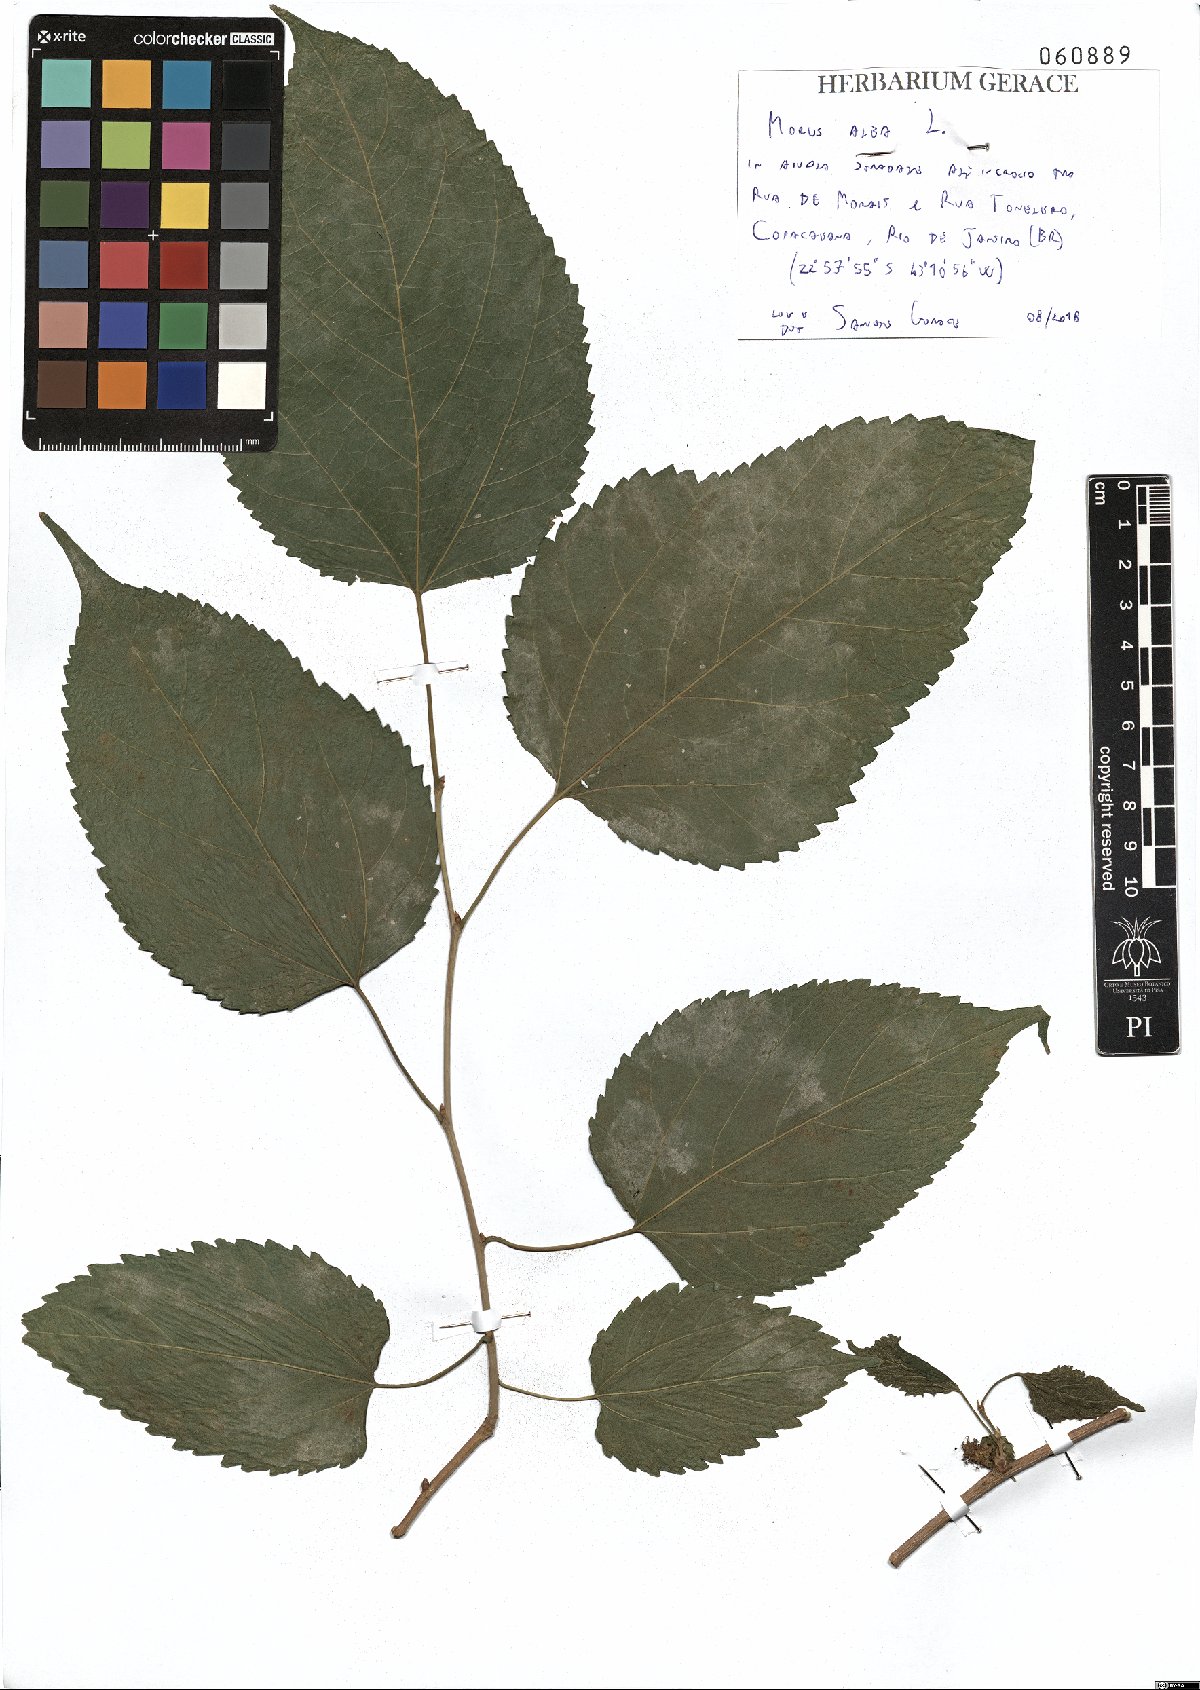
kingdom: Plantae
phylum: Tracheophyta
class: Magnoliopsida
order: Rosales
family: Moraceae
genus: Morus
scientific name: Morus alba
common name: White mulberry
